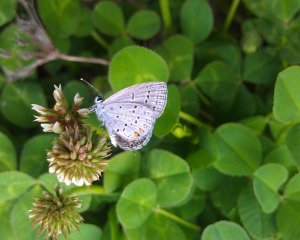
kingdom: Animalia
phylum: Arthropoda
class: Insecta
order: Lepidoptera
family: Lycaenidae
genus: Elkalyce
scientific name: Elkalyce comyntas
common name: Eastern Tailed-Blue
